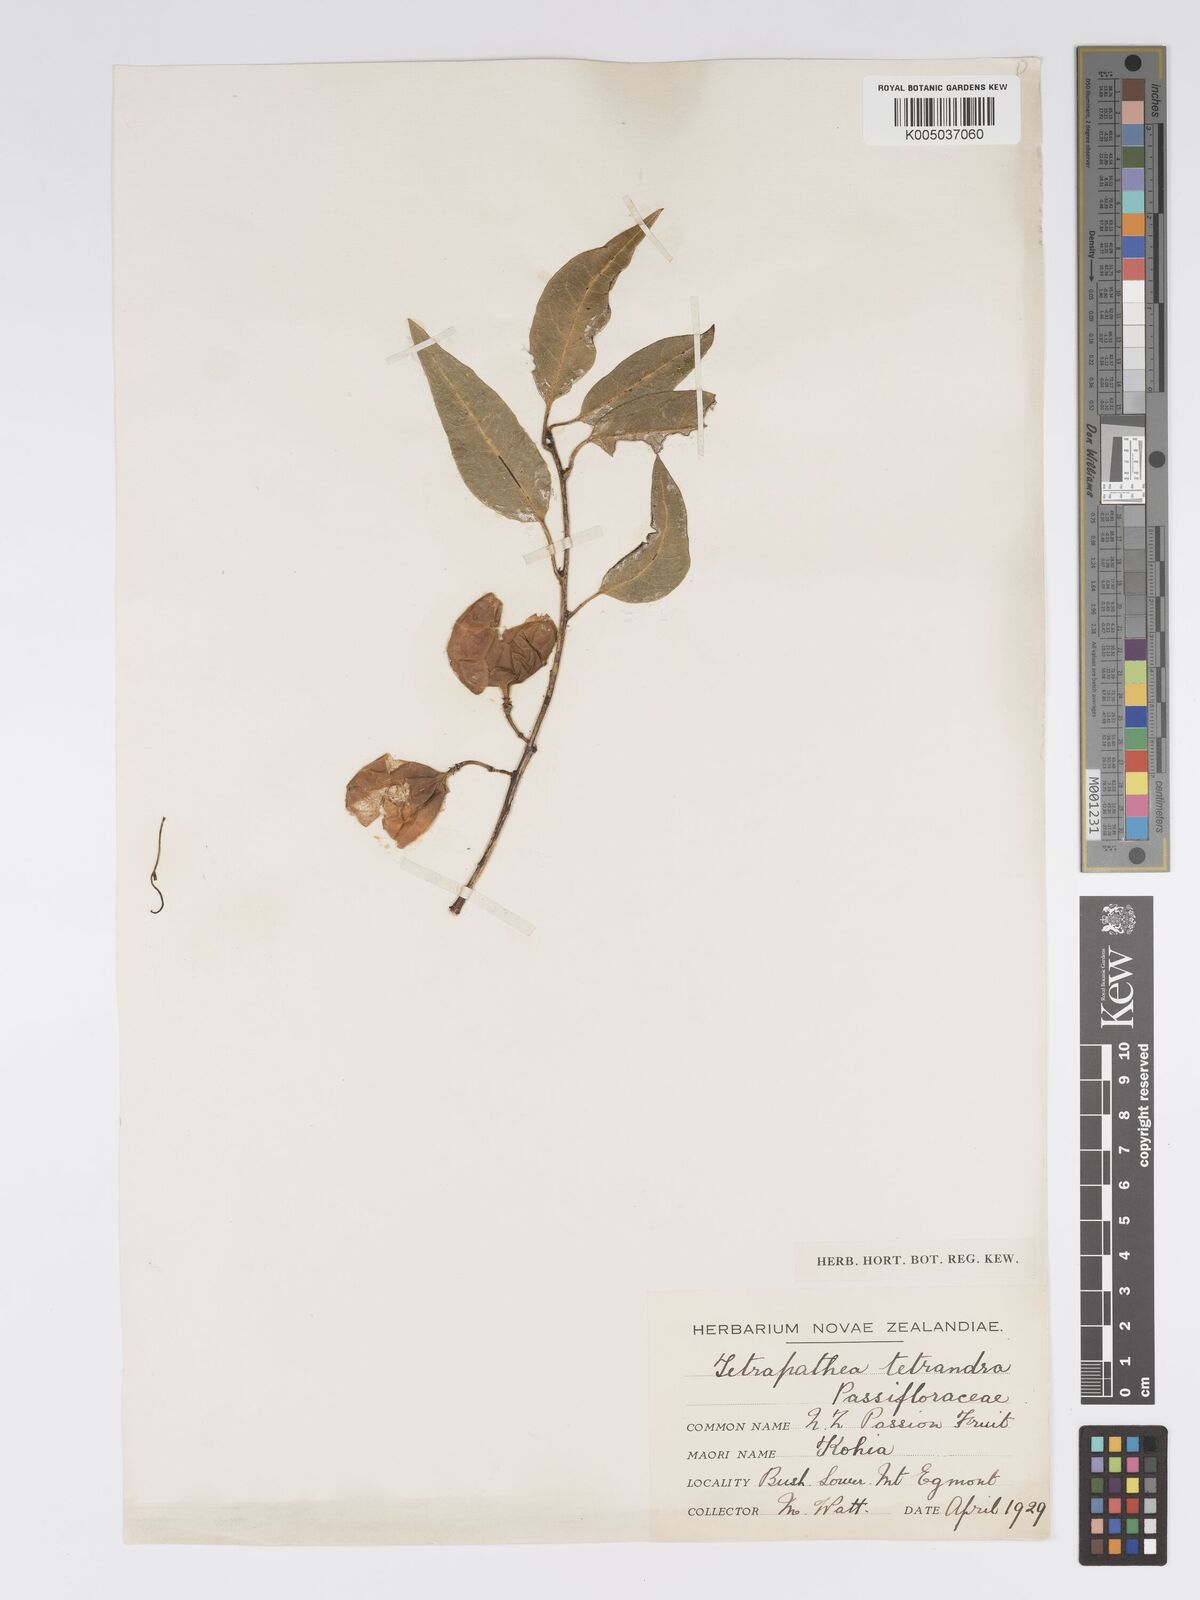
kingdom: Plantae
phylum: Tracheophyta
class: Magnoliopsida
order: Malpighiales
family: Passifloraceae
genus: Passiflora
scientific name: Passiflora tetrandra
